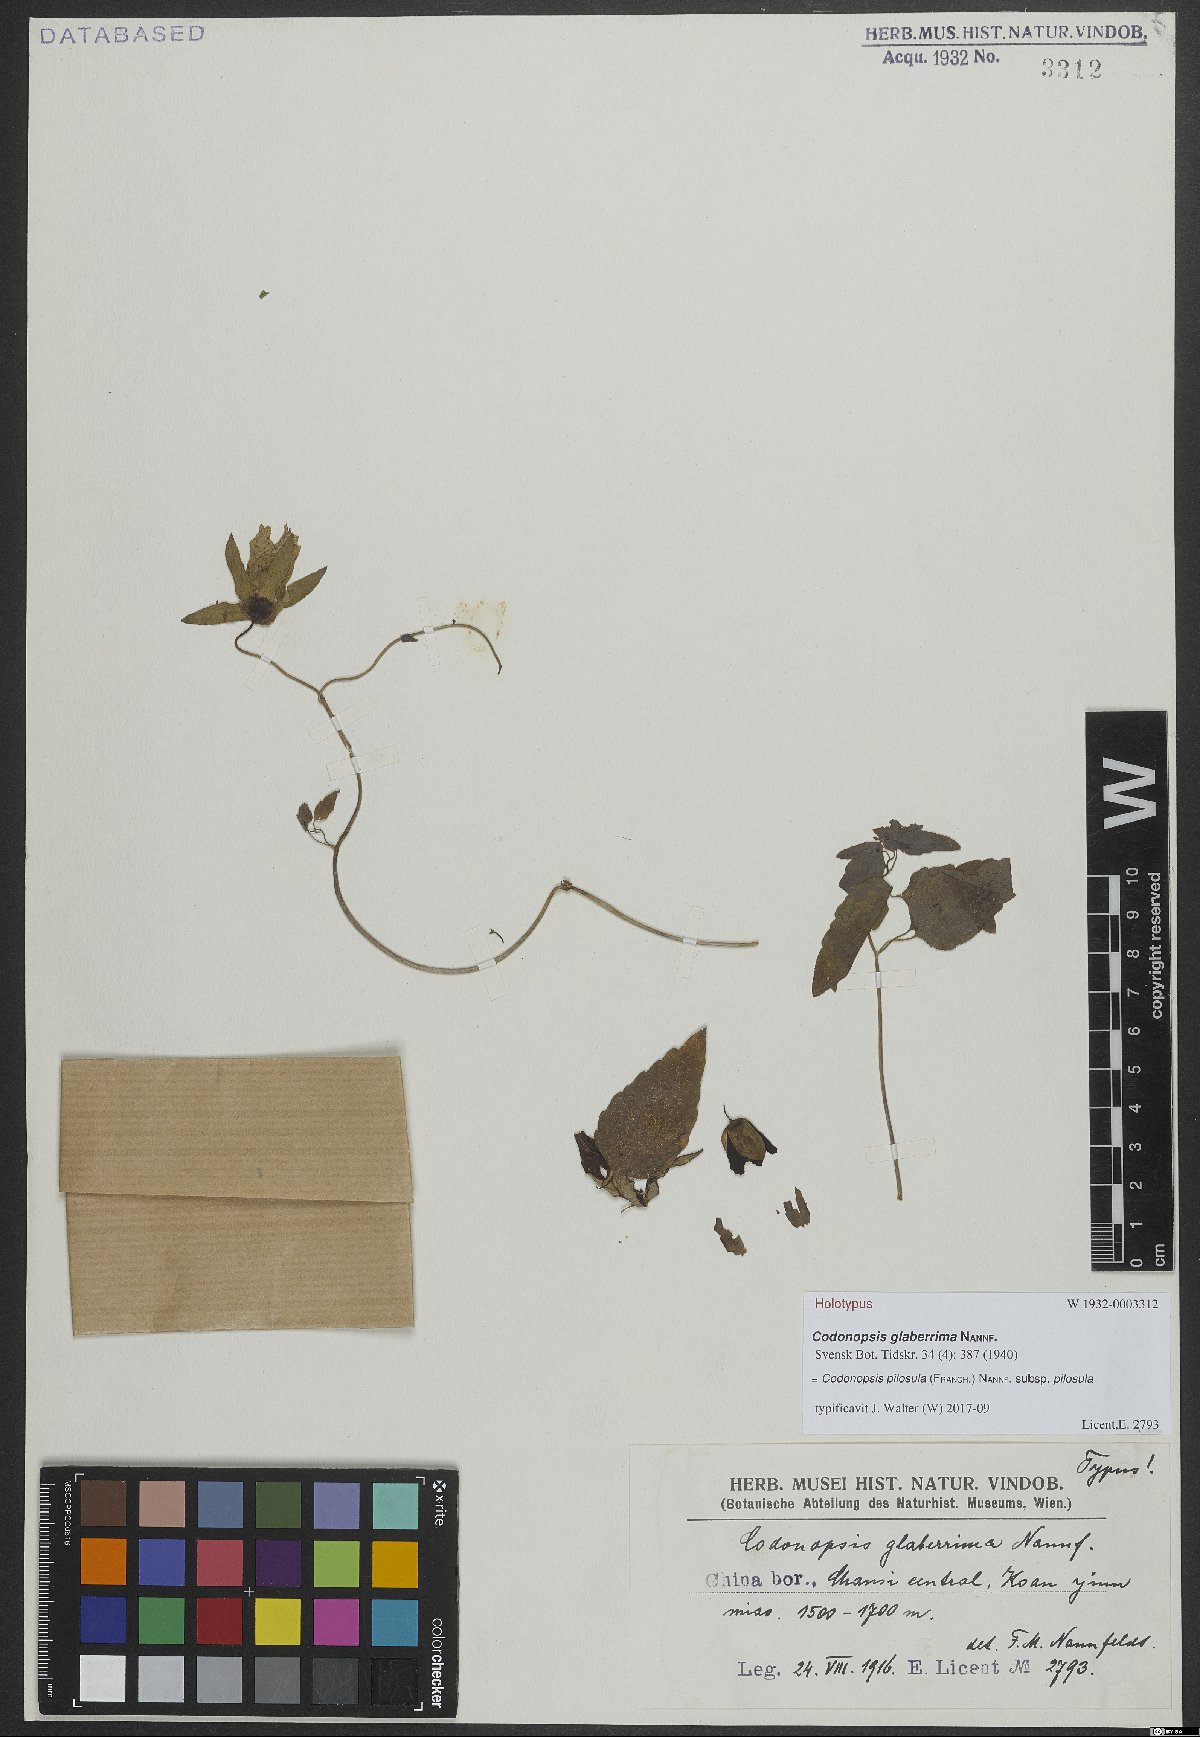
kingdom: Plantae
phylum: Tracheophyta
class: Magnoliopsida
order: Asterales
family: Campanulaceae
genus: Codonopsis
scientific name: Codonopsis pilosula
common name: Bellflower
